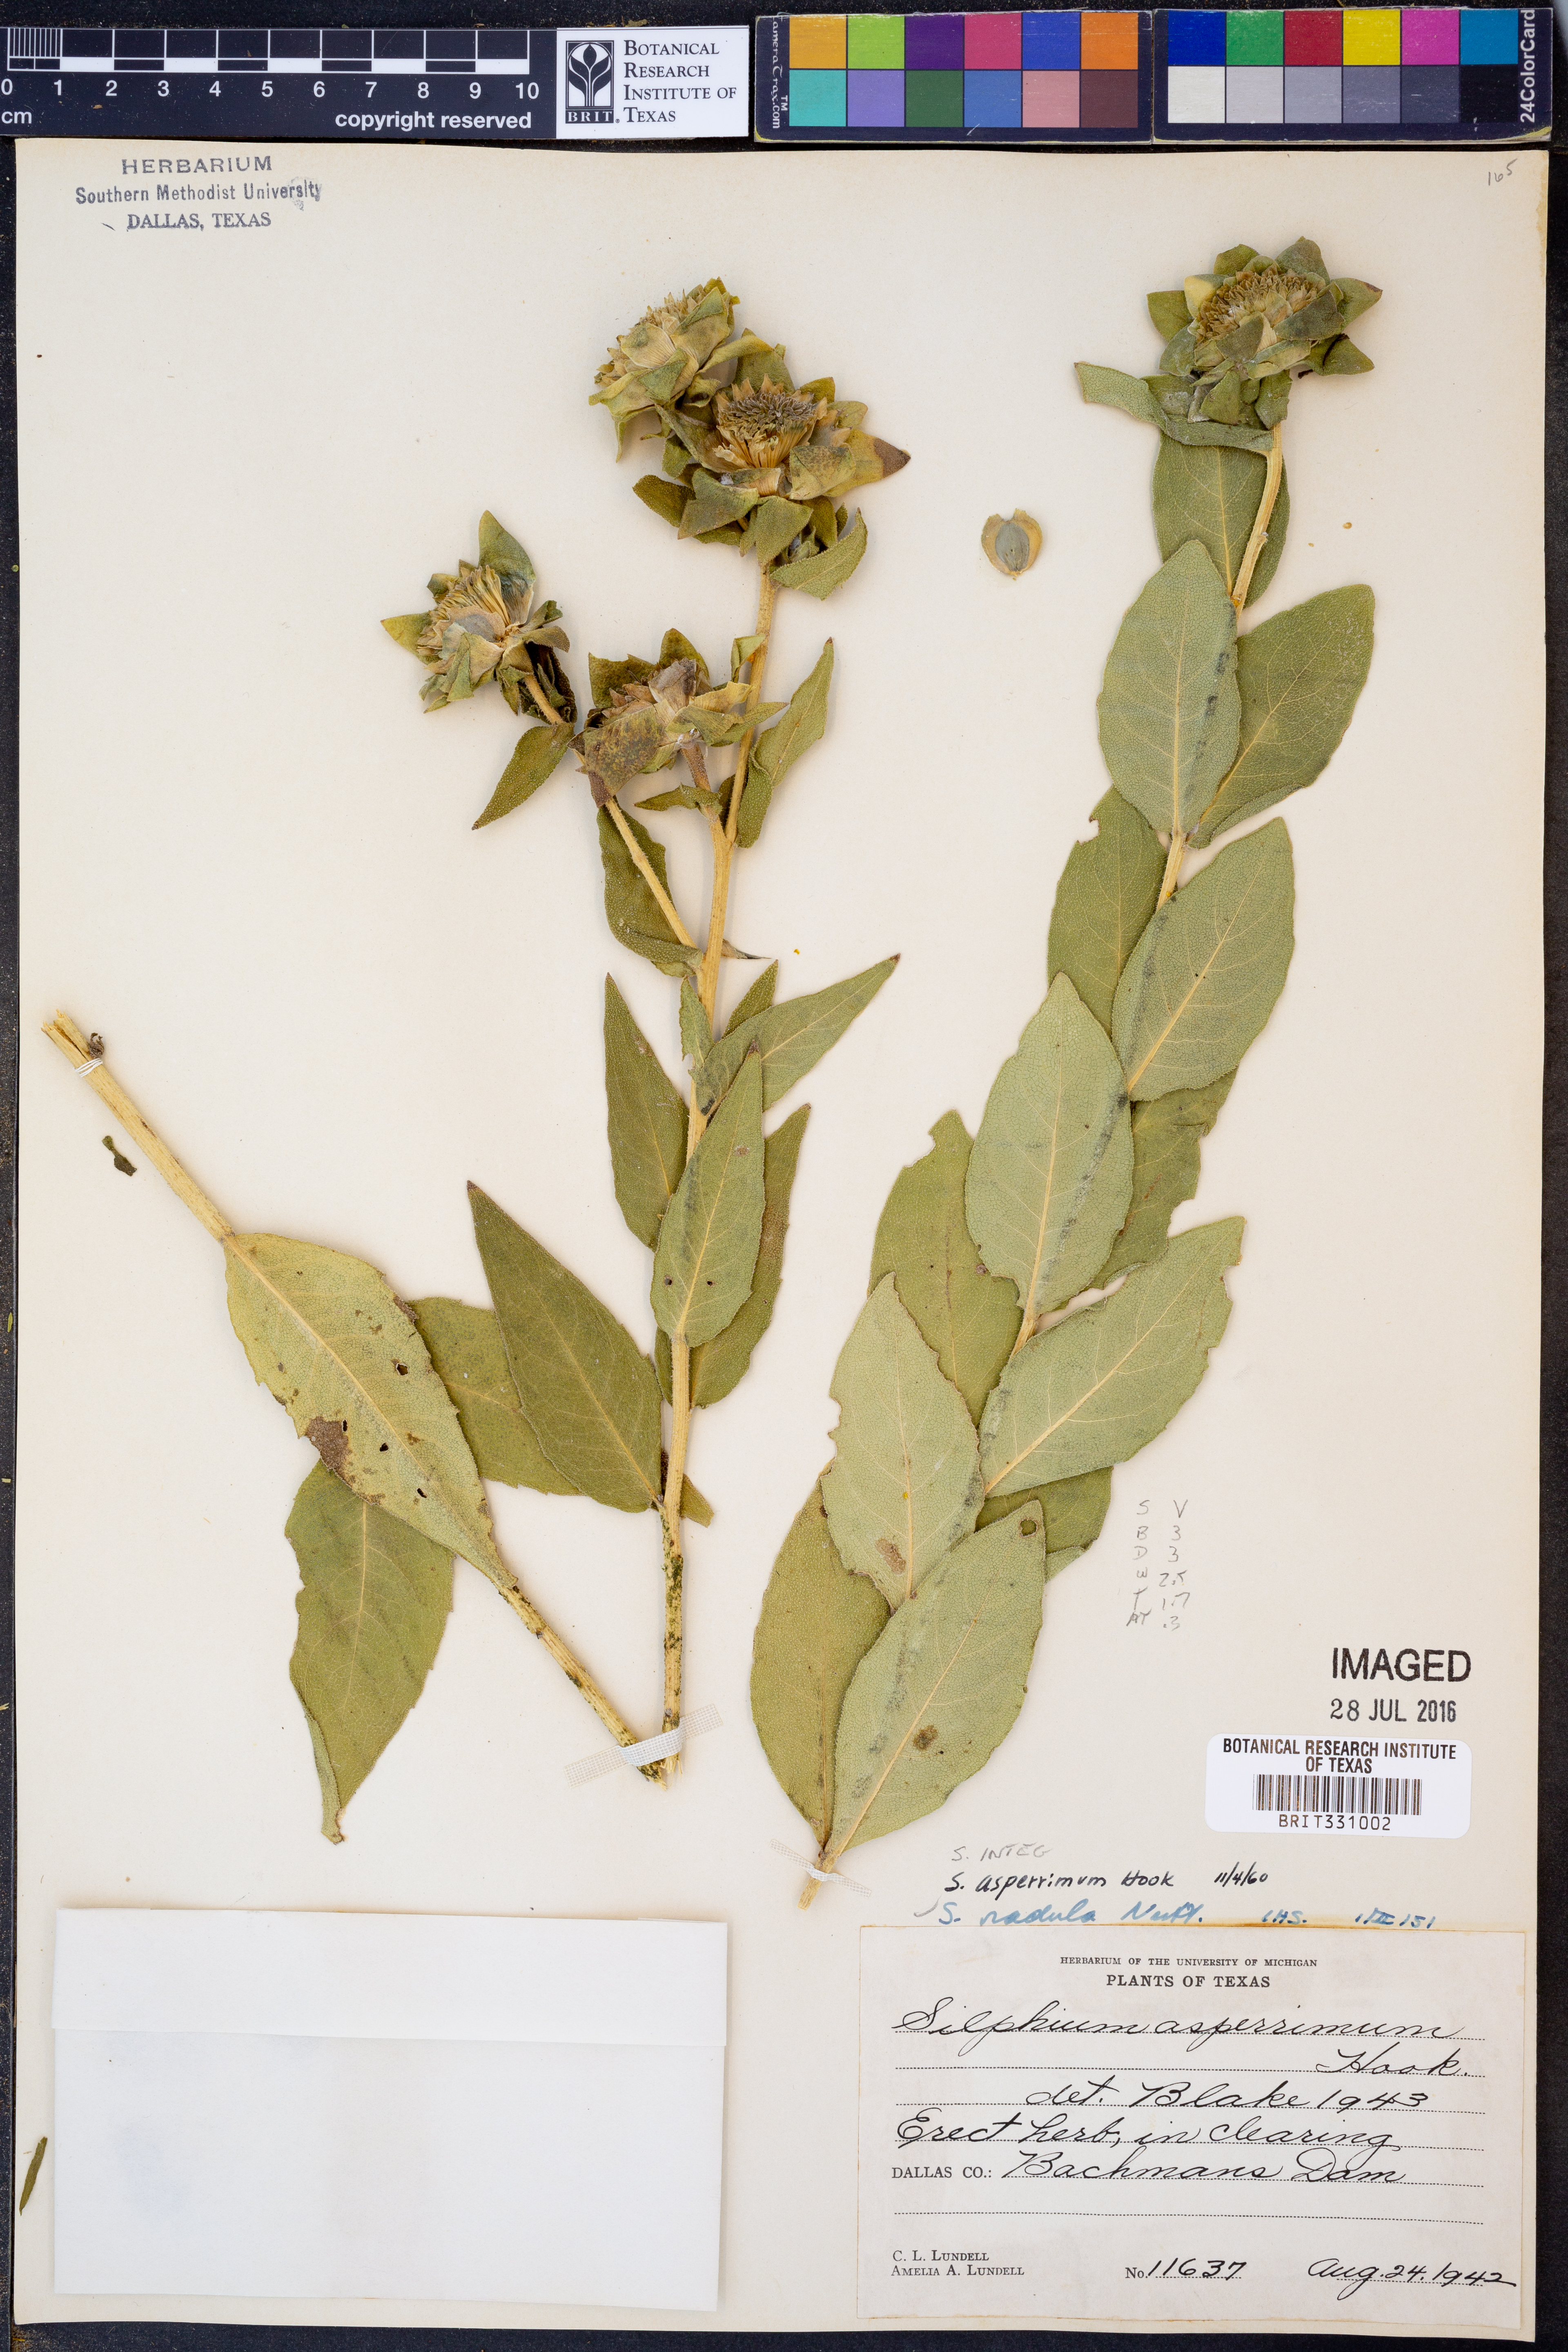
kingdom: Plantae
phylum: Tracheophyta
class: Magnoliopsida
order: Asterales
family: Asteraceae
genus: Silphium
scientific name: Silphium asperrimum
